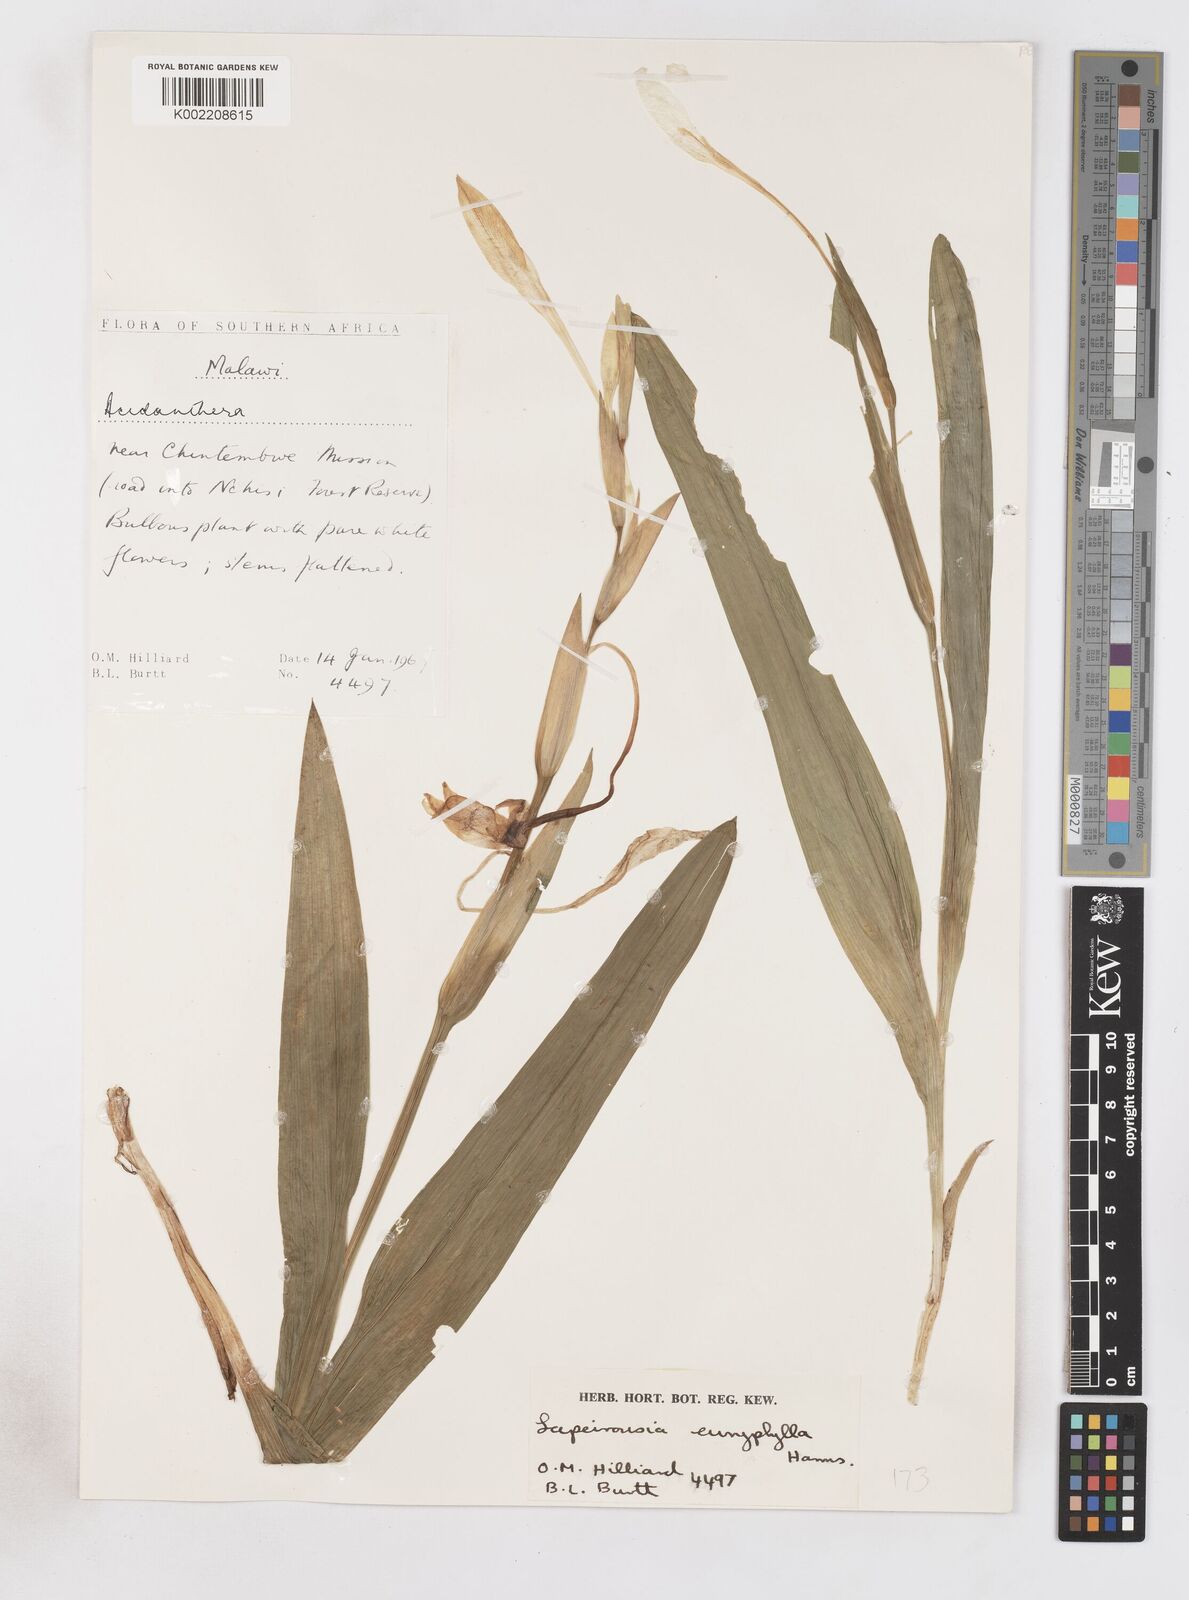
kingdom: Plantae
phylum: Tracheophyta
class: Liliopsida
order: Asparagales
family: Iridaceae
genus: Savannosiphon
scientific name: Savannosiphon euryphylla
